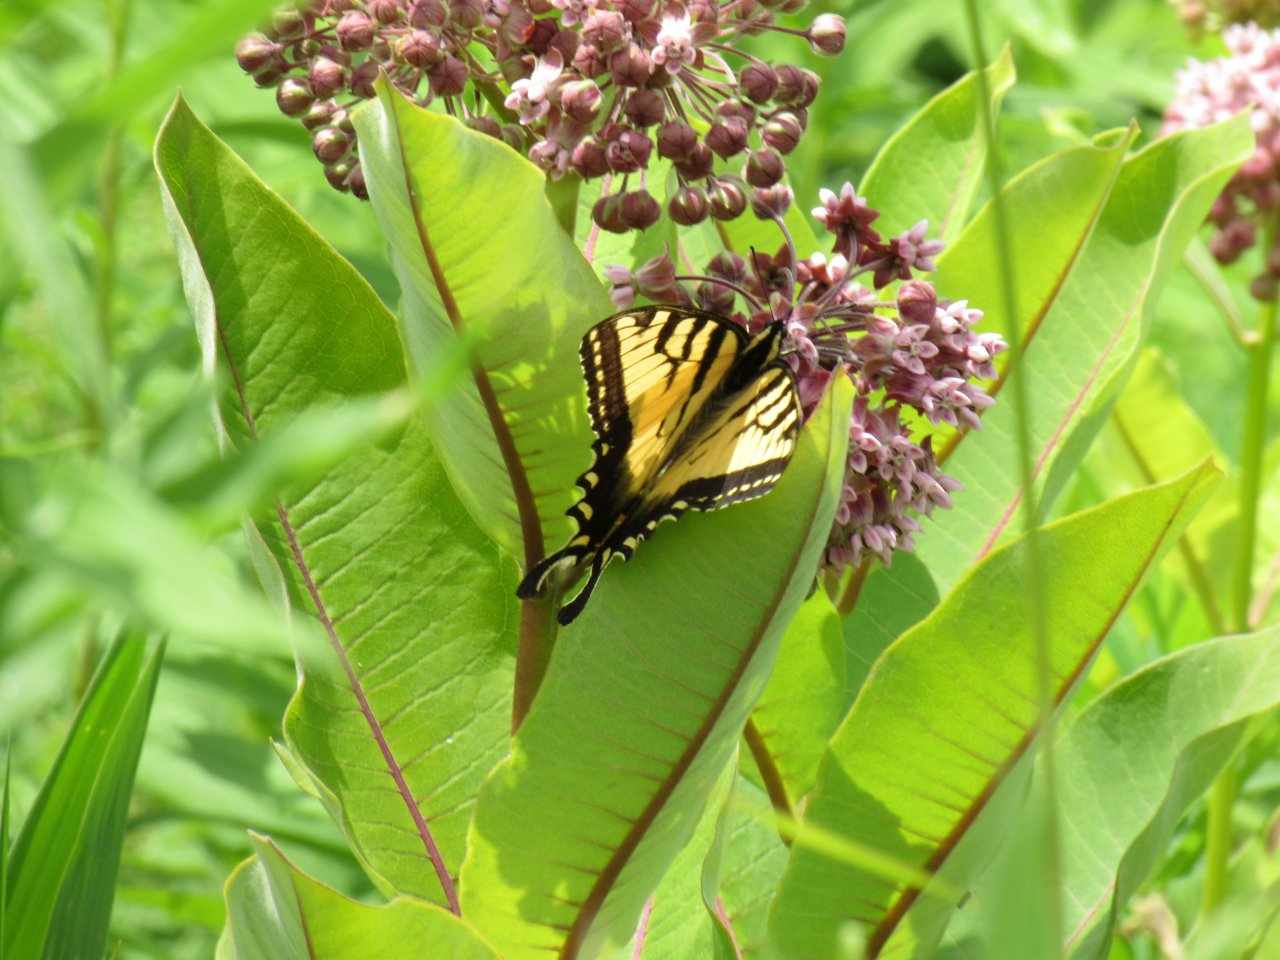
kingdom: Animalia
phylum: Arthropoda
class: Insecta
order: Lepidoptera
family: Papilionidae
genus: Pterourus
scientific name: Pterourus
